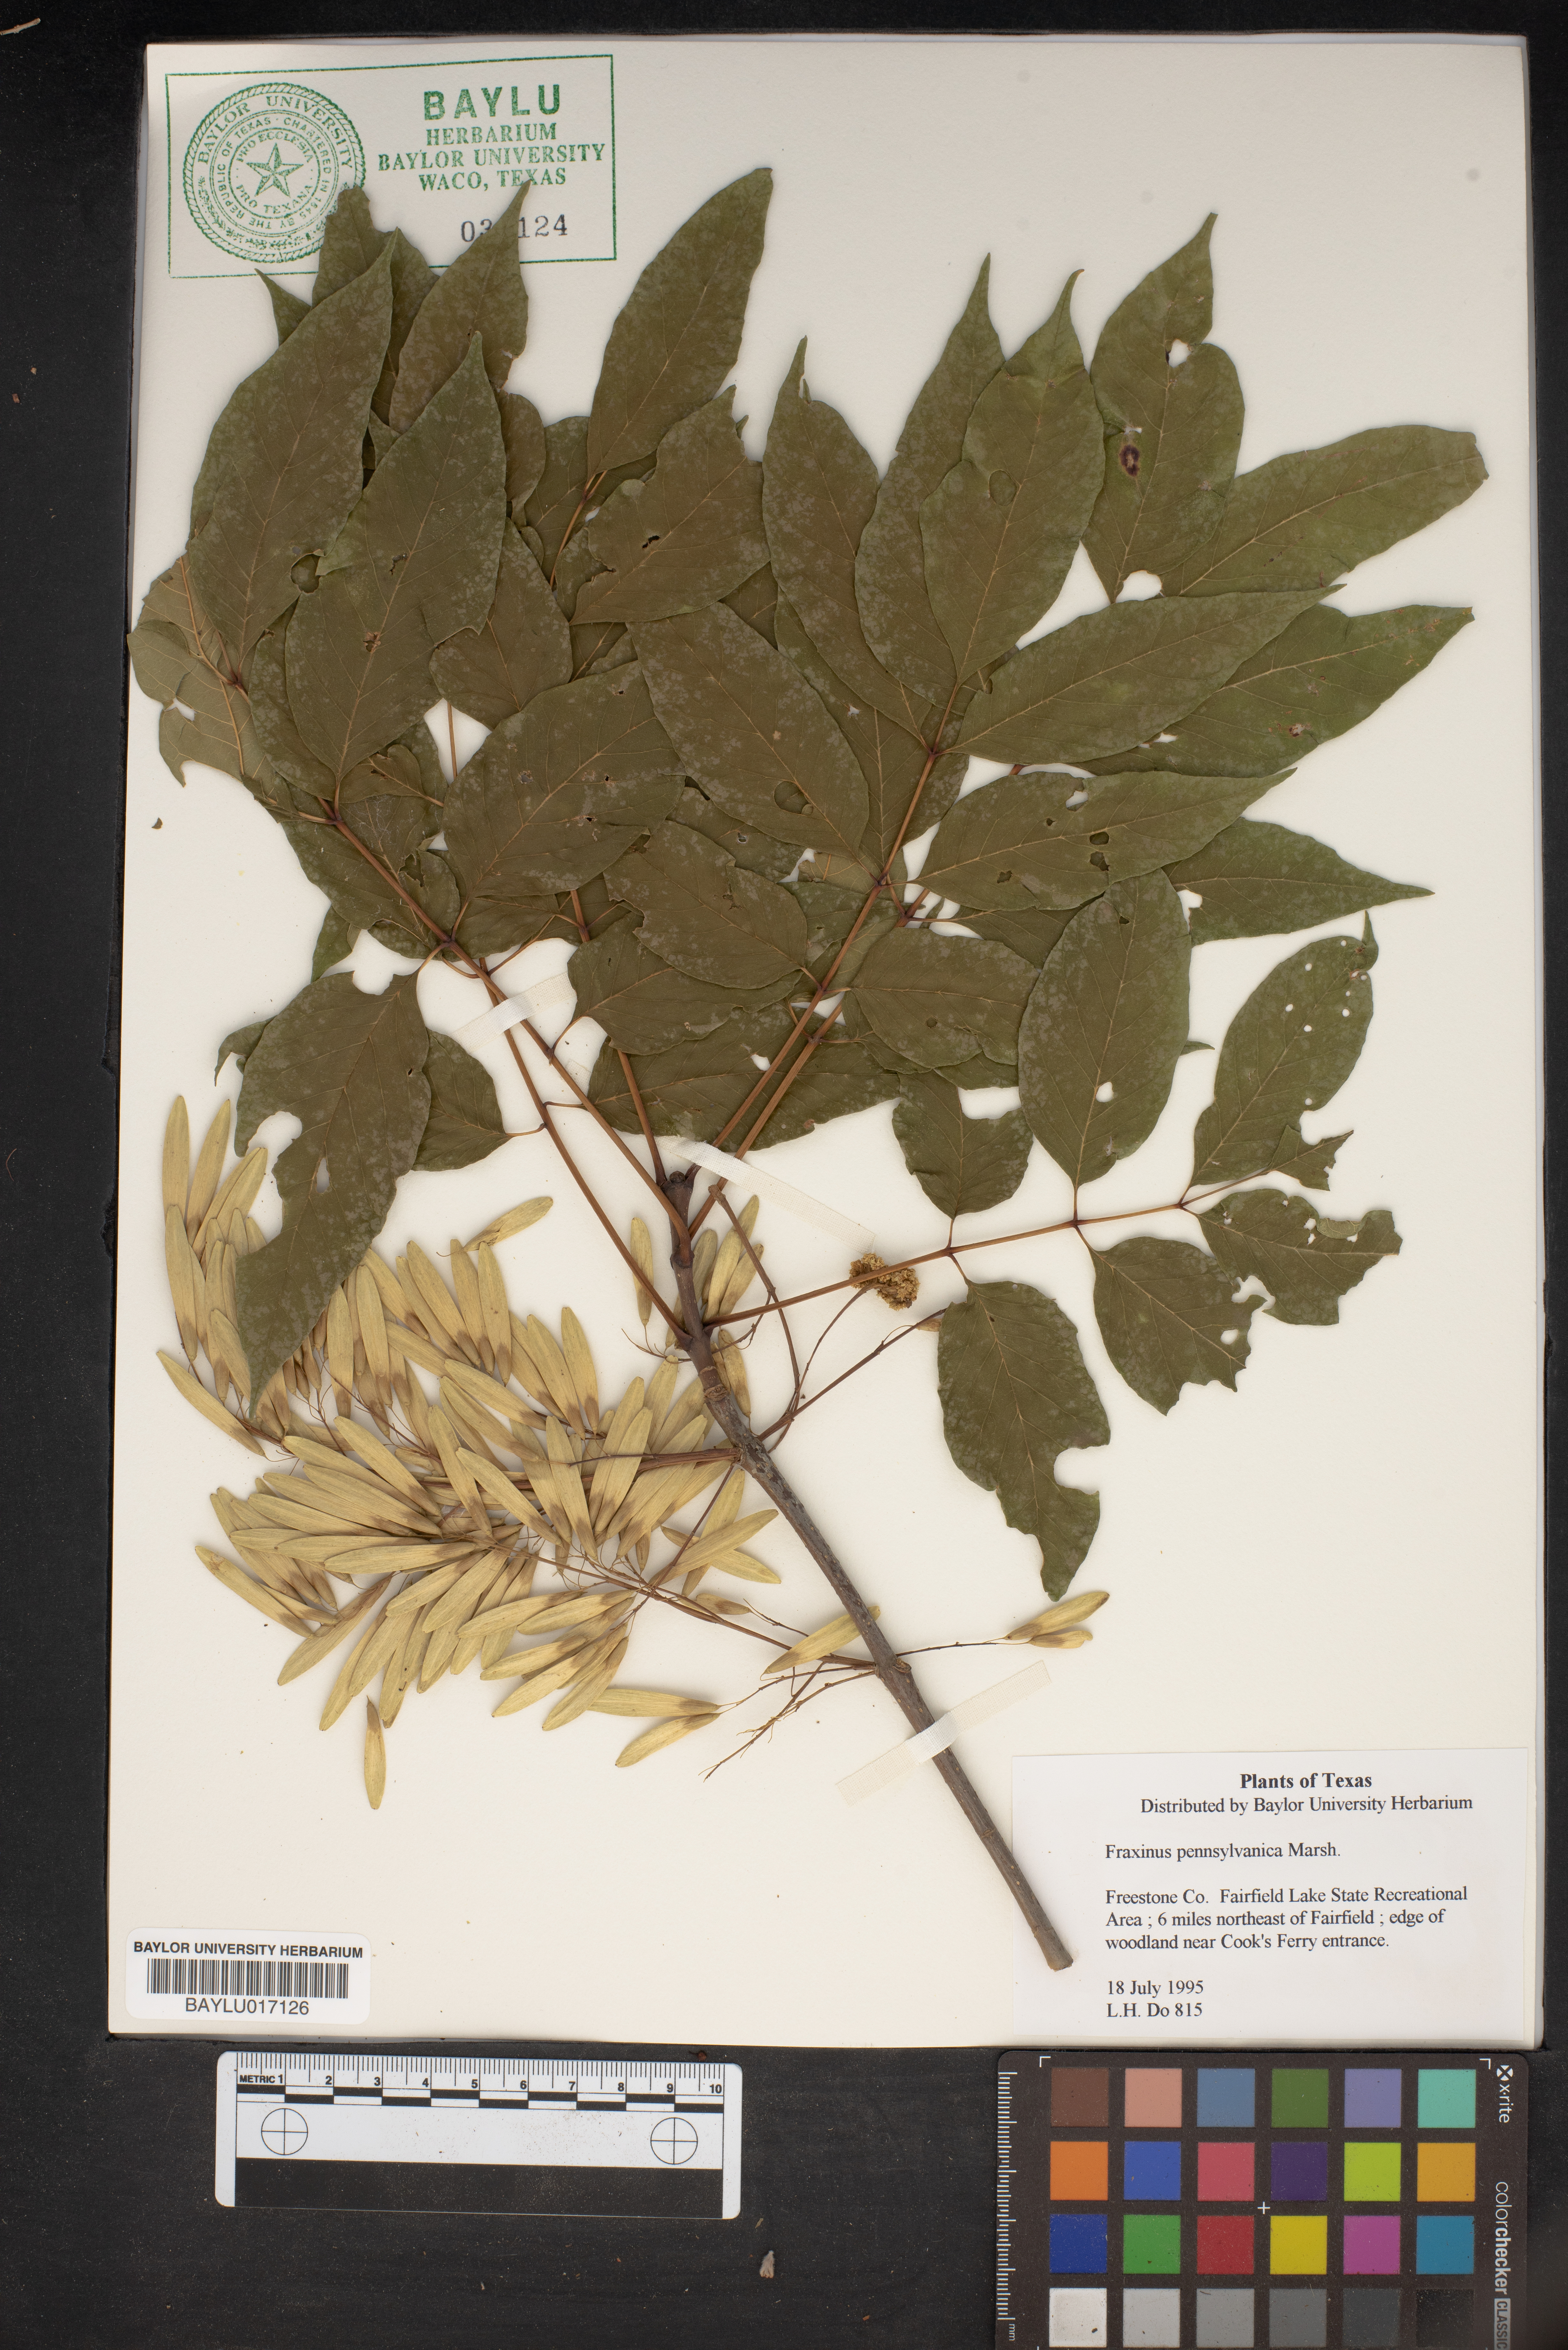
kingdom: Plantae
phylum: Tracheophyta
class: Magnoliopsida
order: Lamiales
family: Oleaceae
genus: Fraxinus
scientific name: Fraxinus pennsylvanica
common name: Green ash
